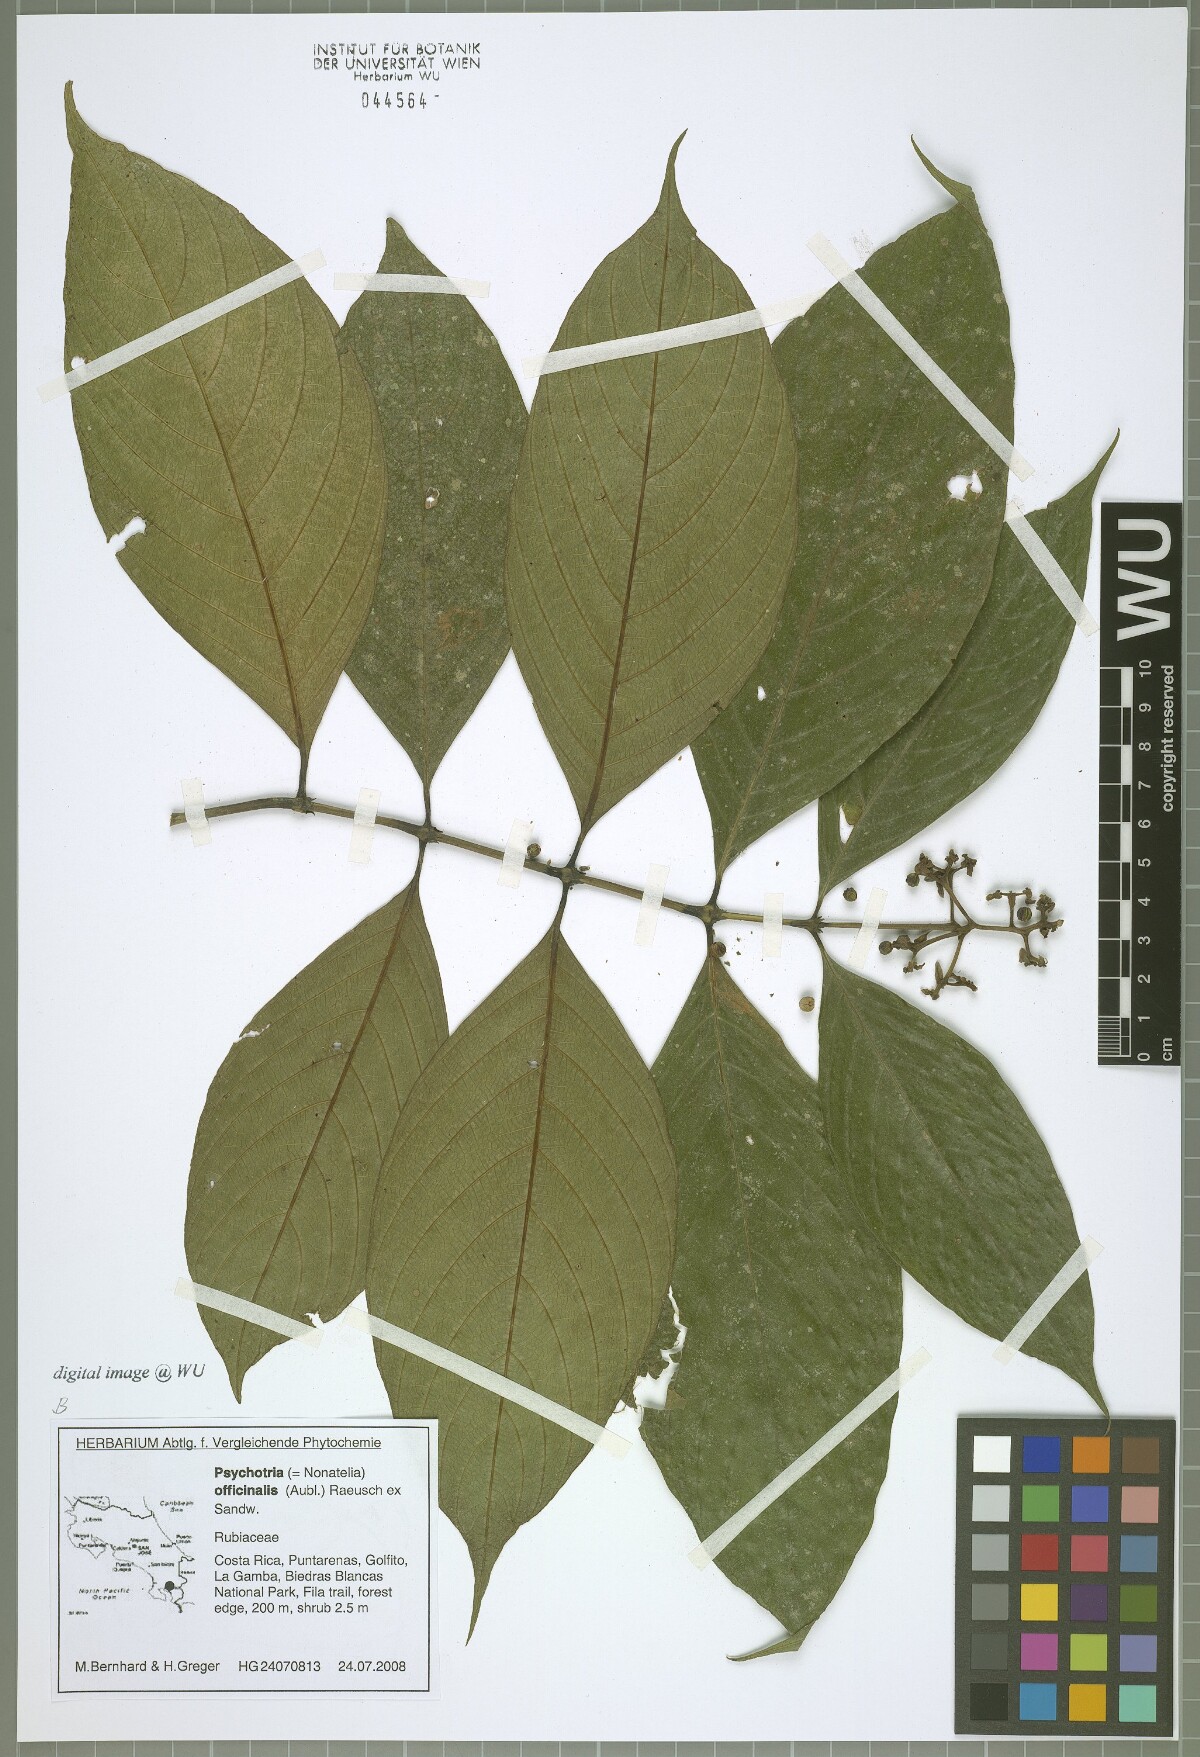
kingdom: Plantae
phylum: Tracheophyta
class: Magnoliopsida
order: Gentianales
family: Rubiaceae
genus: Palicourea
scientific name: Palicourea winkleri
